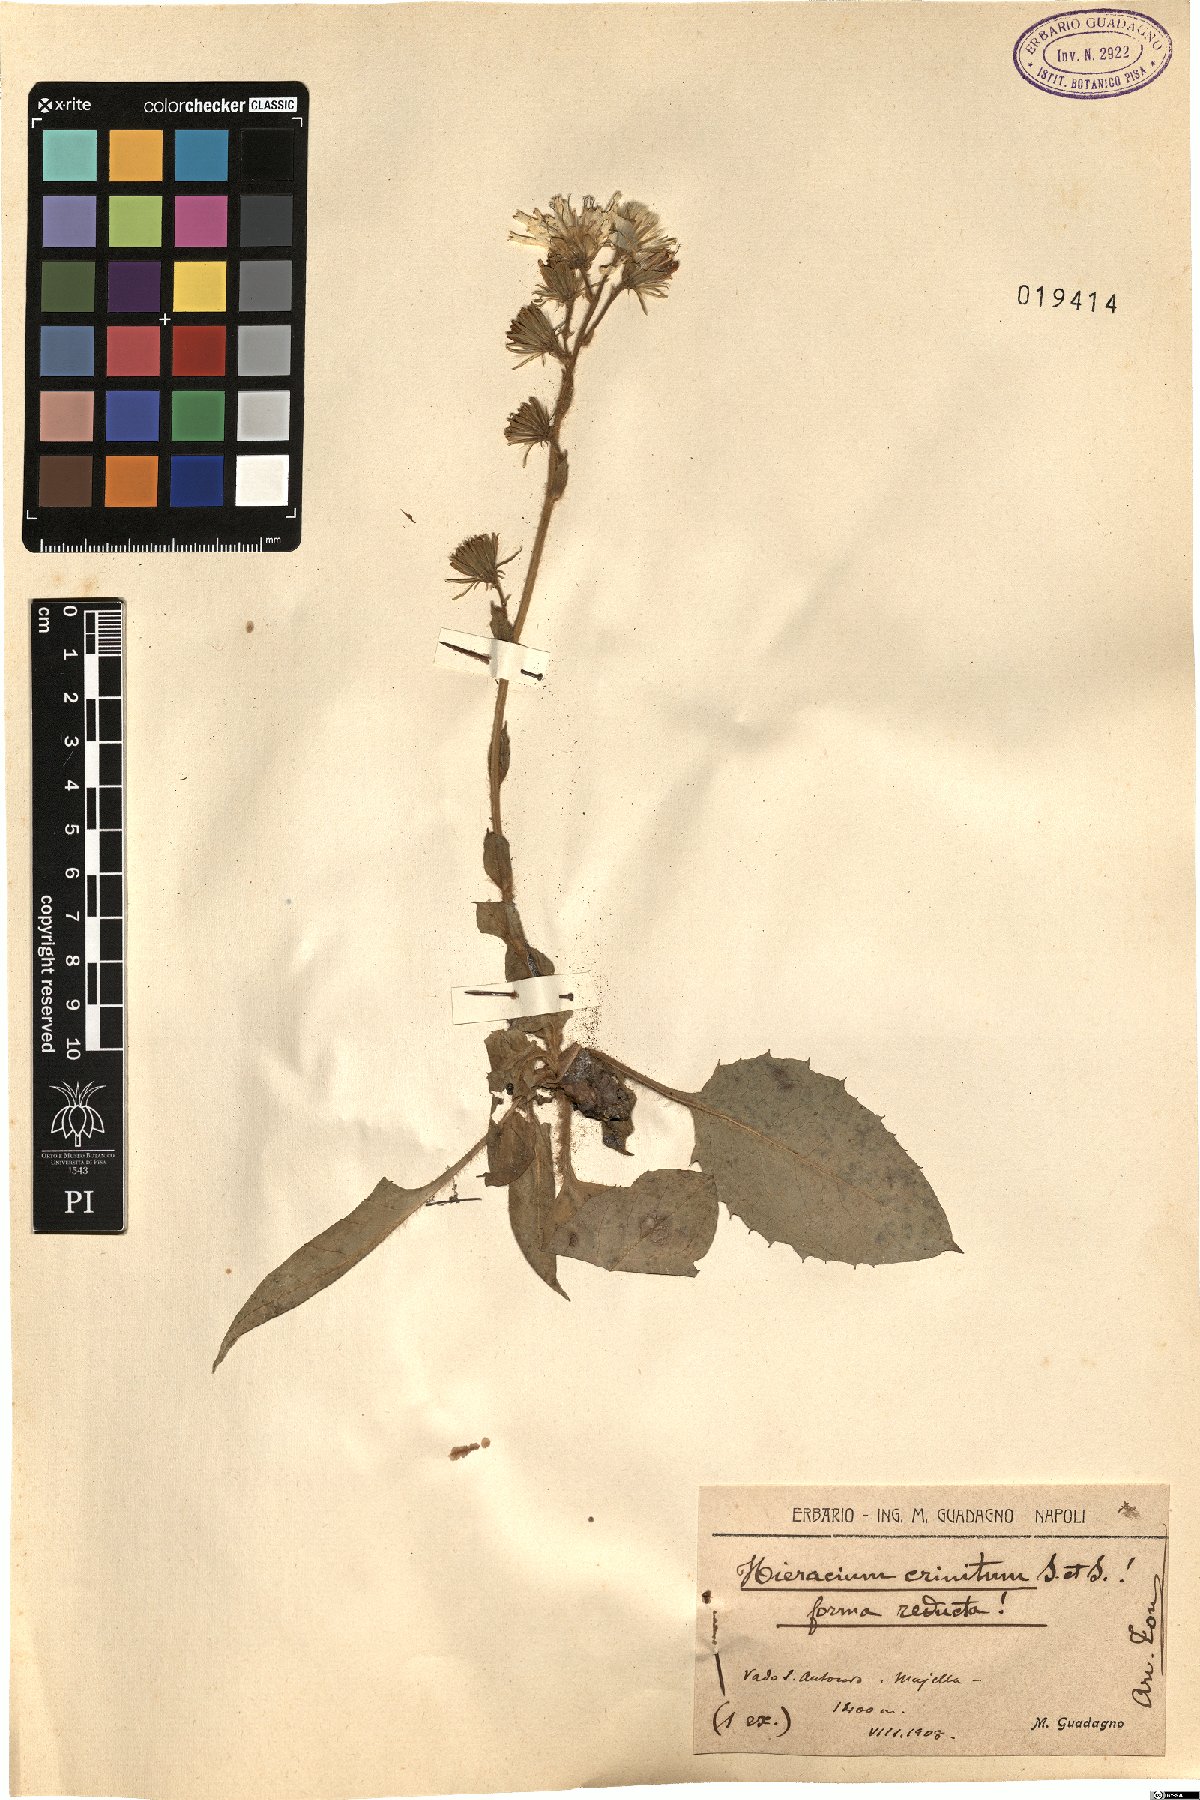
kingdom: Plantae
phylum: Tracheophyta
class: Magnoliopsida
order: Asterales
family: Asteraceae
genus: Hieracium
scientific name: Hieracium racemosum
